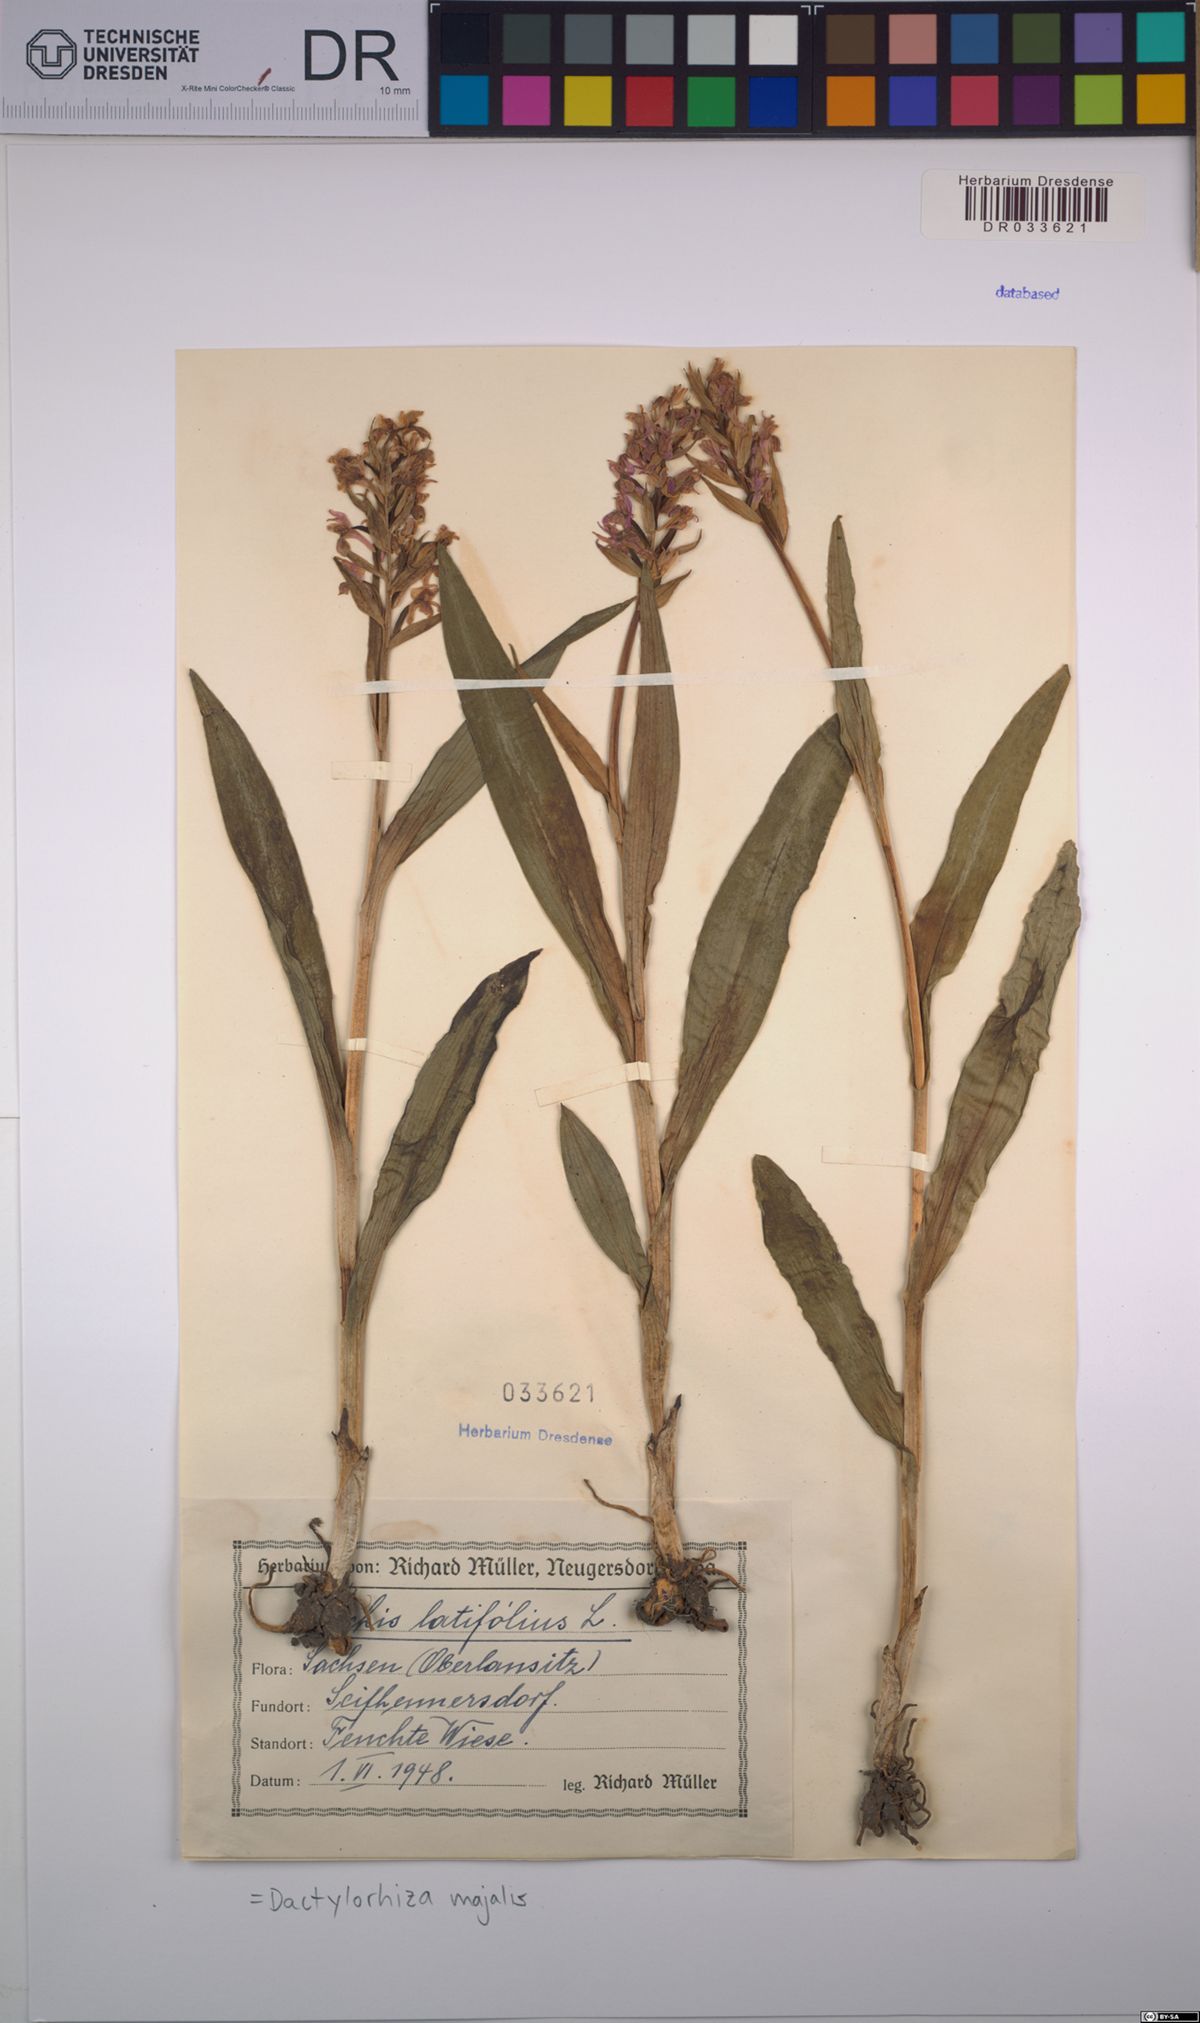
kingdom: Plantae
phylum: Tracheophyta
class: Liliopsida
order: Asparagales
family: Orchidaceae
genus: Dactylorhiza
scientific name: Dactylorhiza majalis
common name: Marsh orchid
